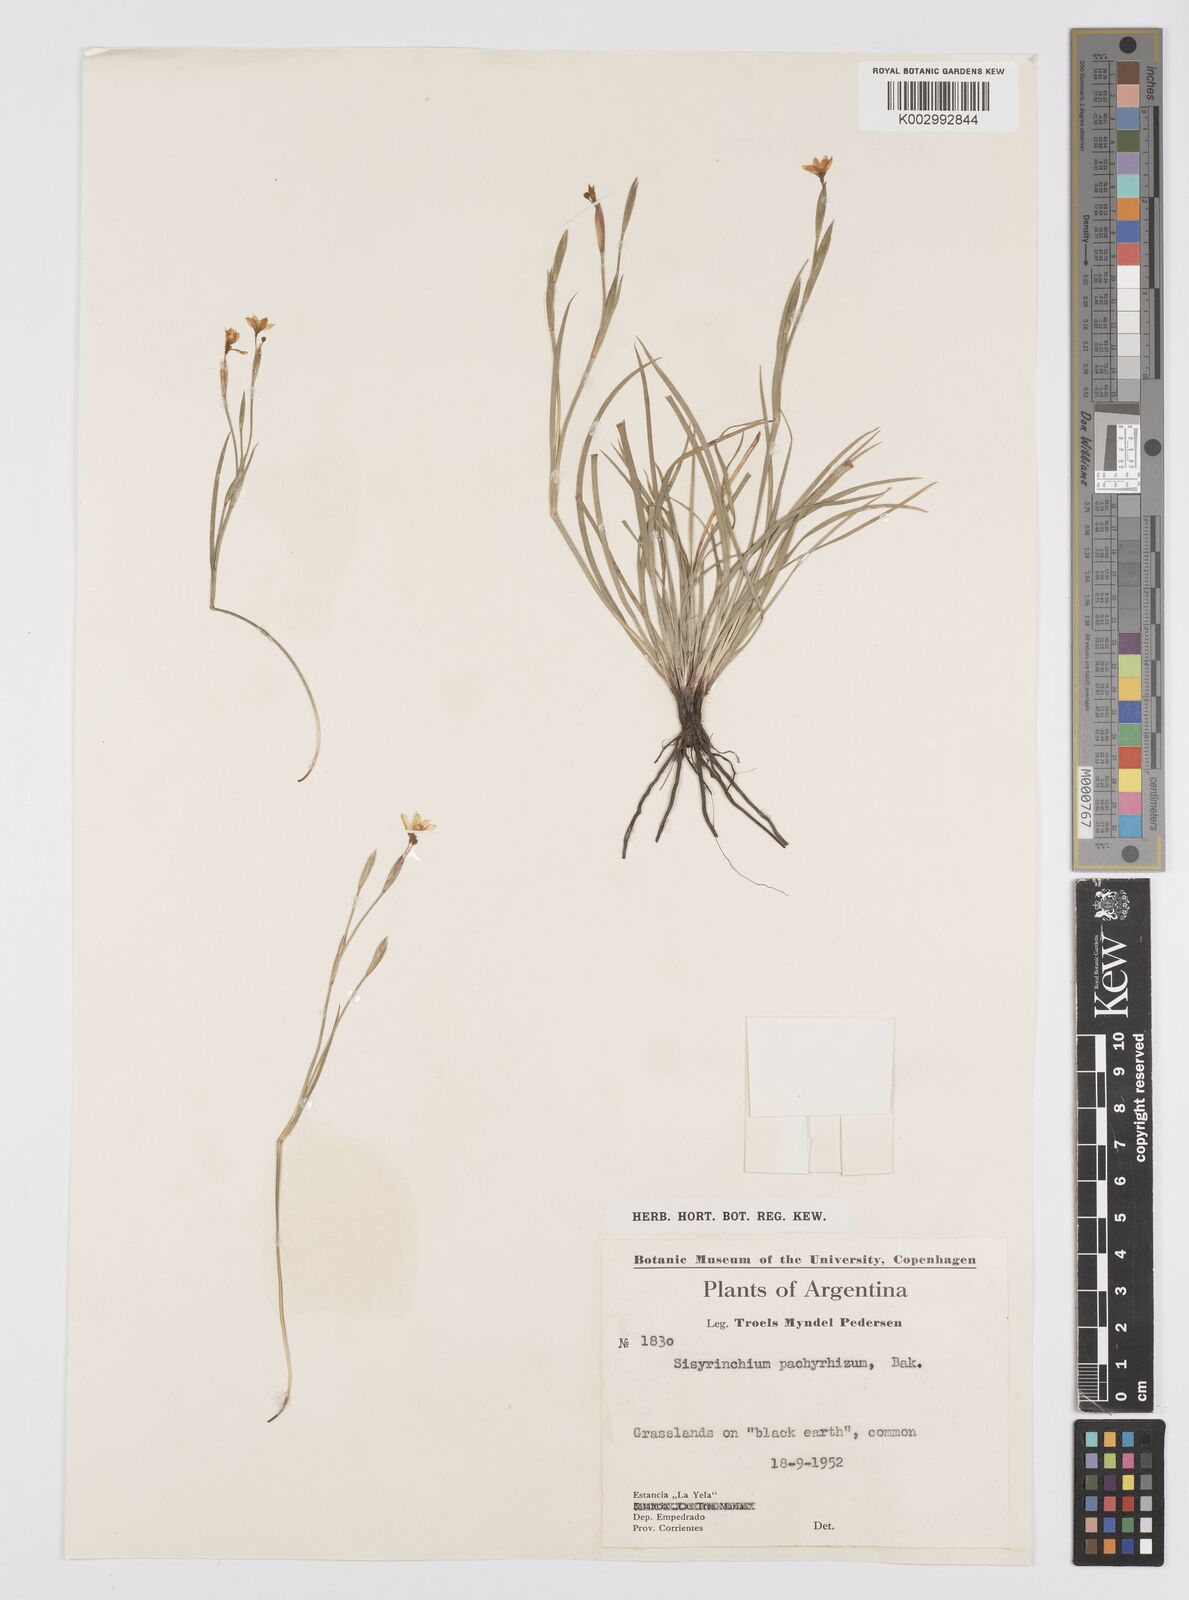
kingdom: Plantae
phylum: Tracheophyta
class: Liliopsida
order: Asparagales
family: Iridaceae
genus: Sisyrinchium
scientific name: Sisyrinchium pachyrhizum
